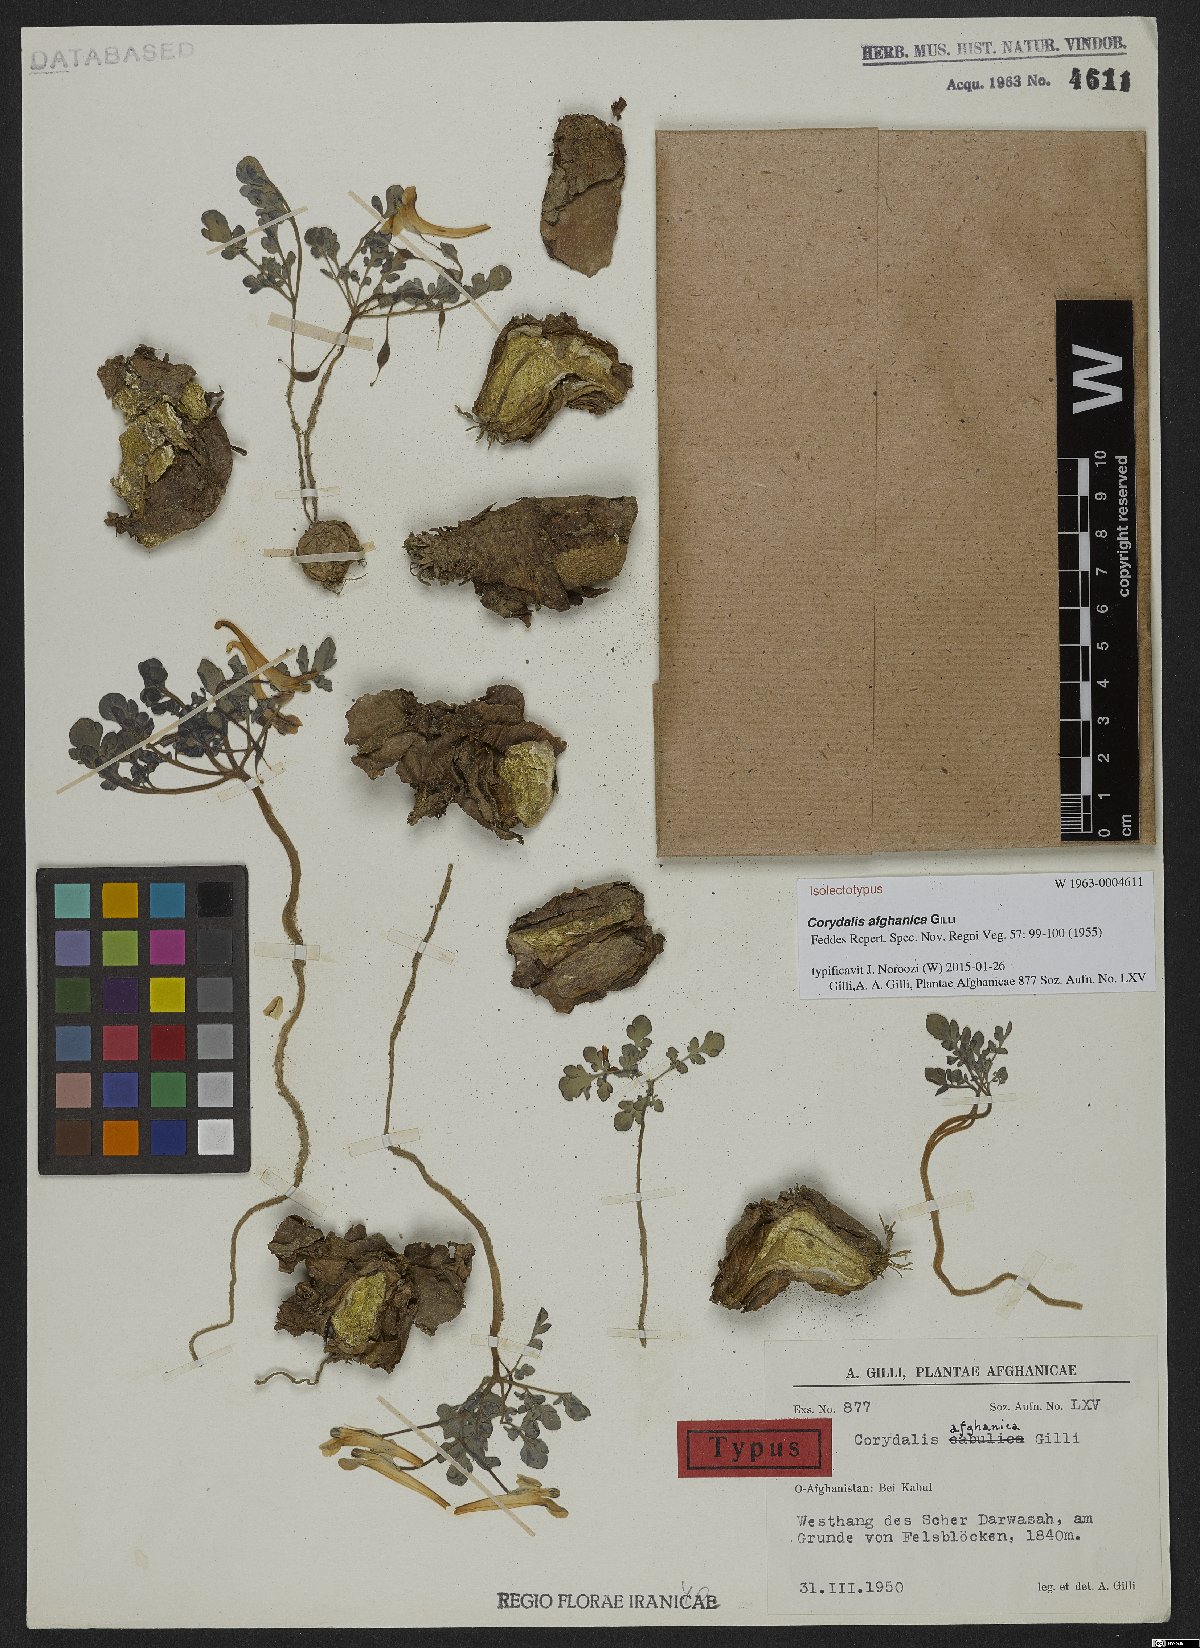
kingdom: Plantae
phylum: Tracheophyta
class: Magnoliopsida
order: Ranunculales
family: Papaveraceae
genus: Corydalis
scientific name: Corydalis afghanica
